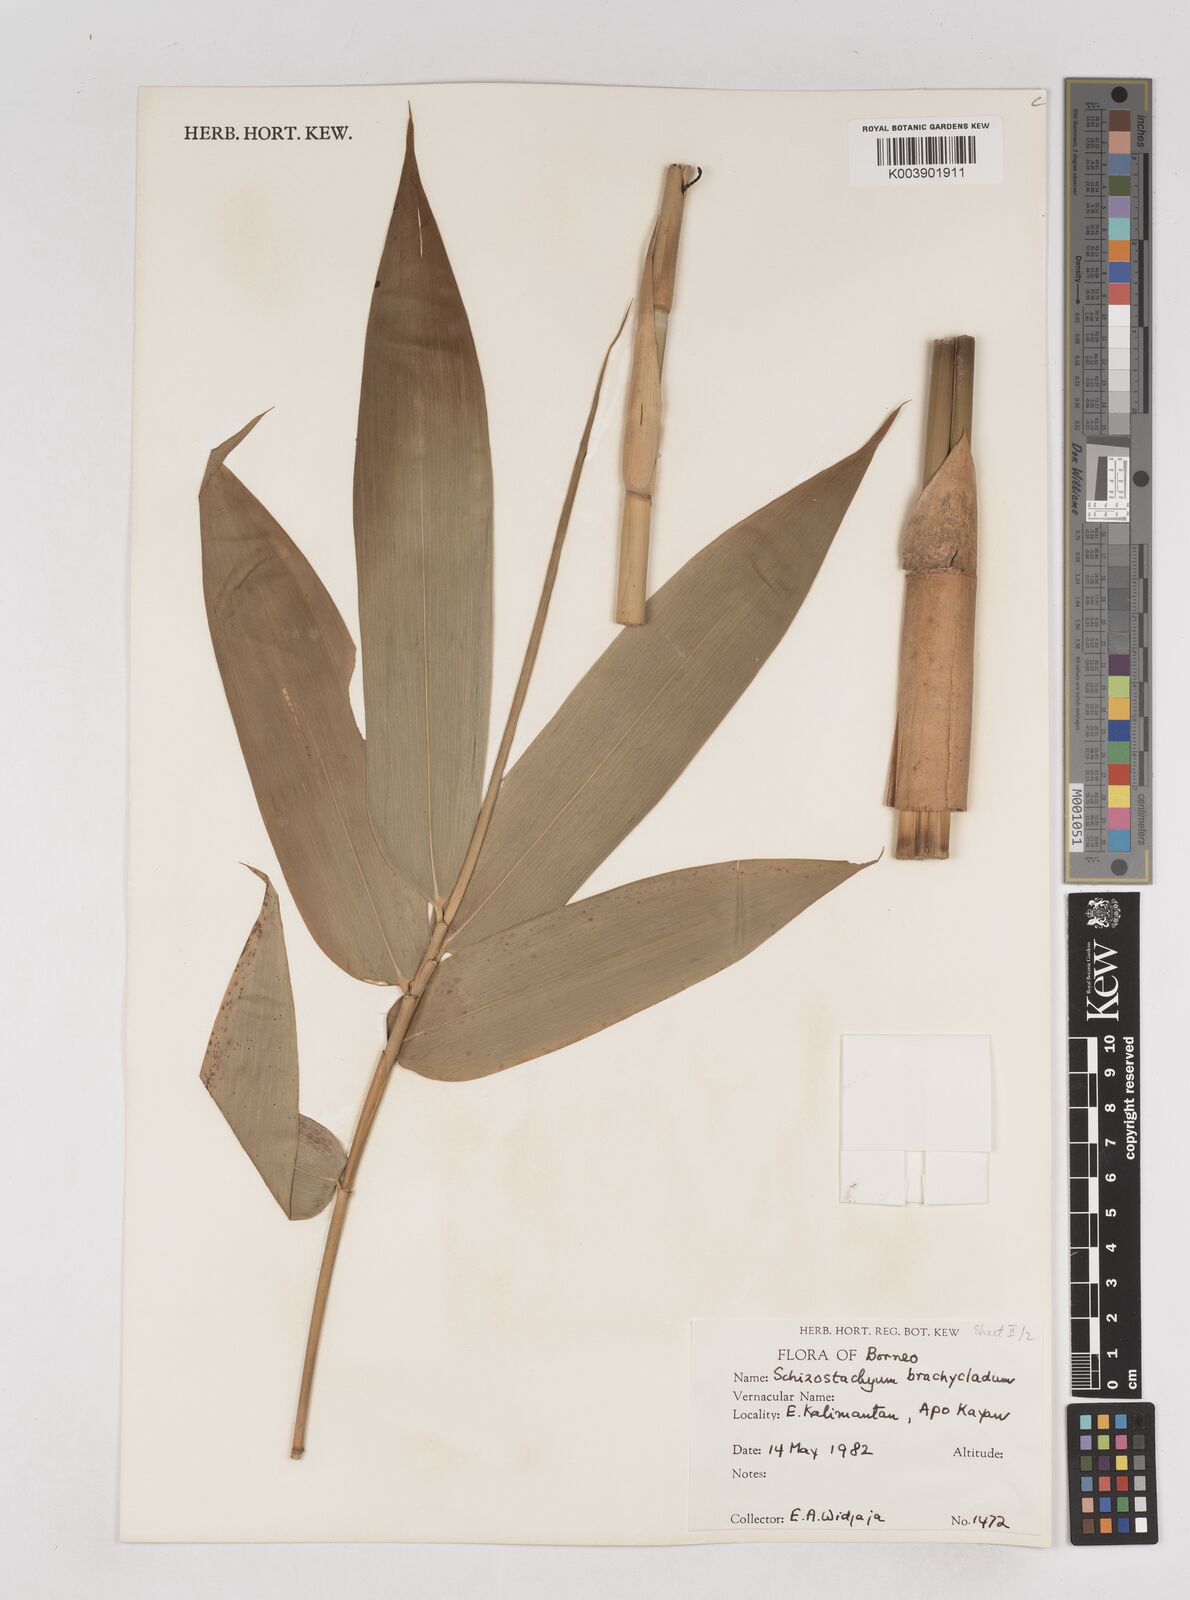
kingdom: Plantae
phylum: Tracheophyta
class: Liliopsida
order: Poales
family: Poaceae
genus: Schizostachyum
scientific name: Schizostachyum brachycladum
